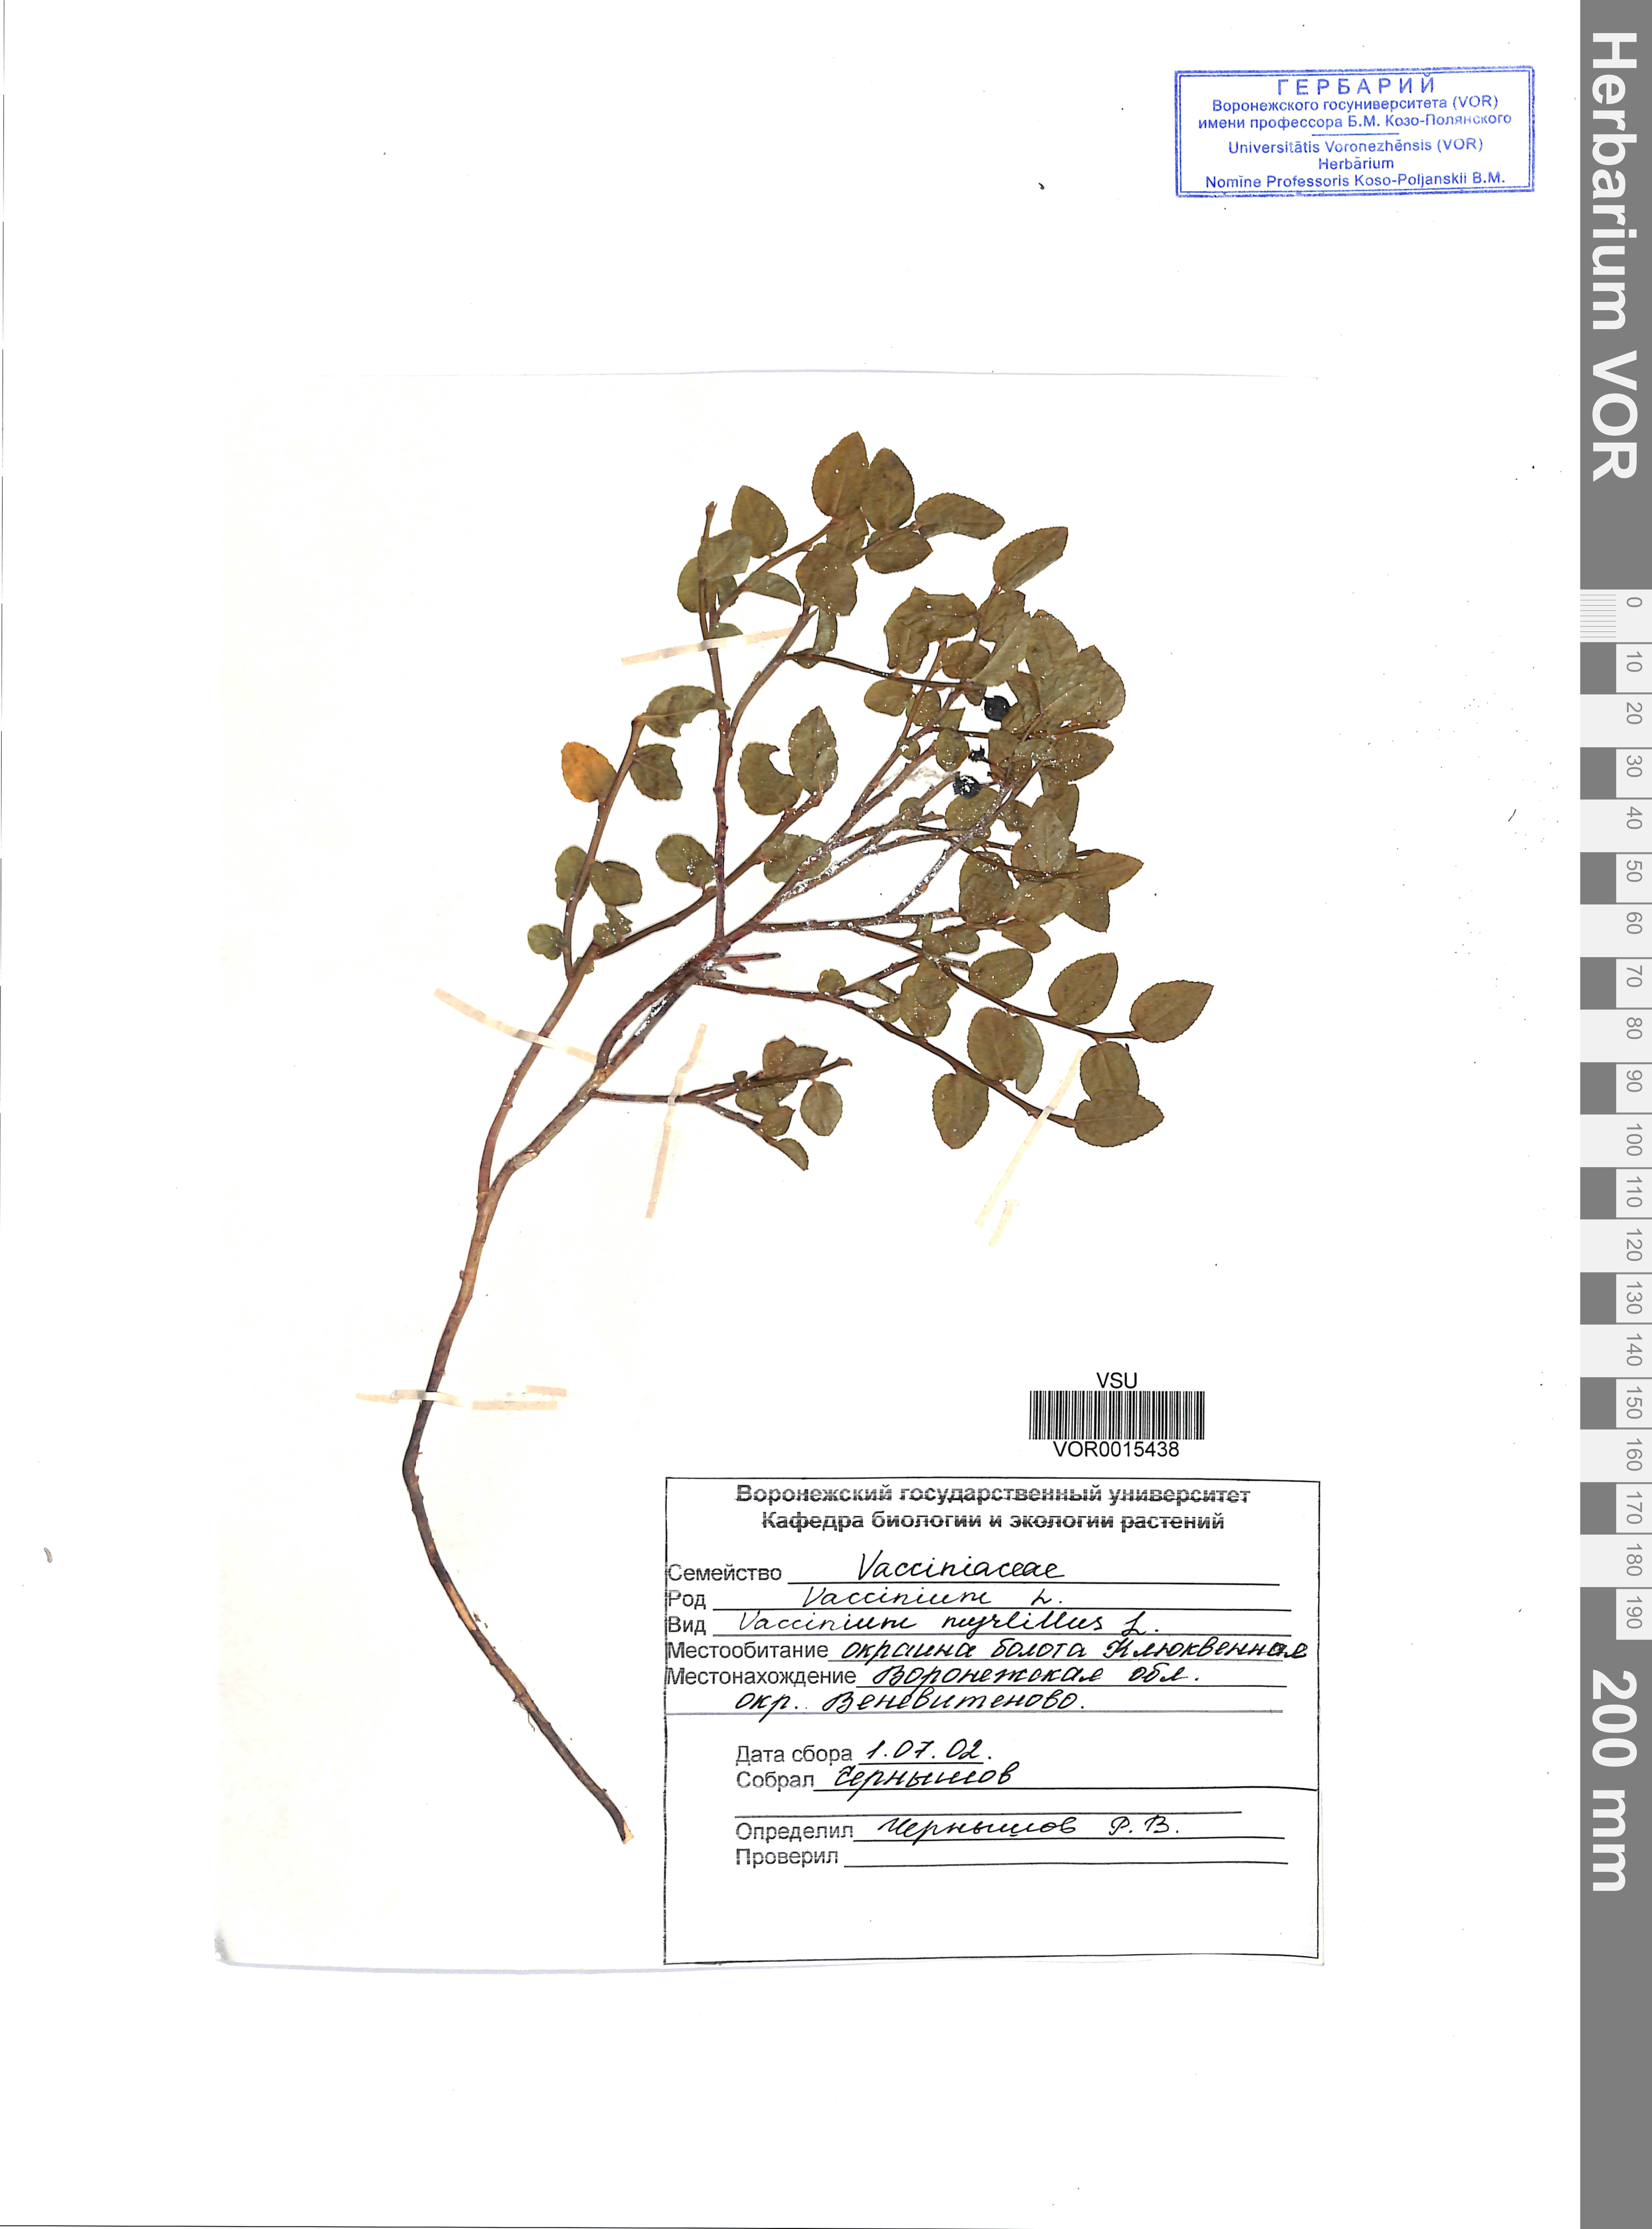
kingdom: Plantae
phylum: Tracheophyta
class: Magnoliopsida
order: Ericales
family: Ericaceae
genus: Vaccinium
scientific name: Vaccinium myrtillus
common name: Bilberry
